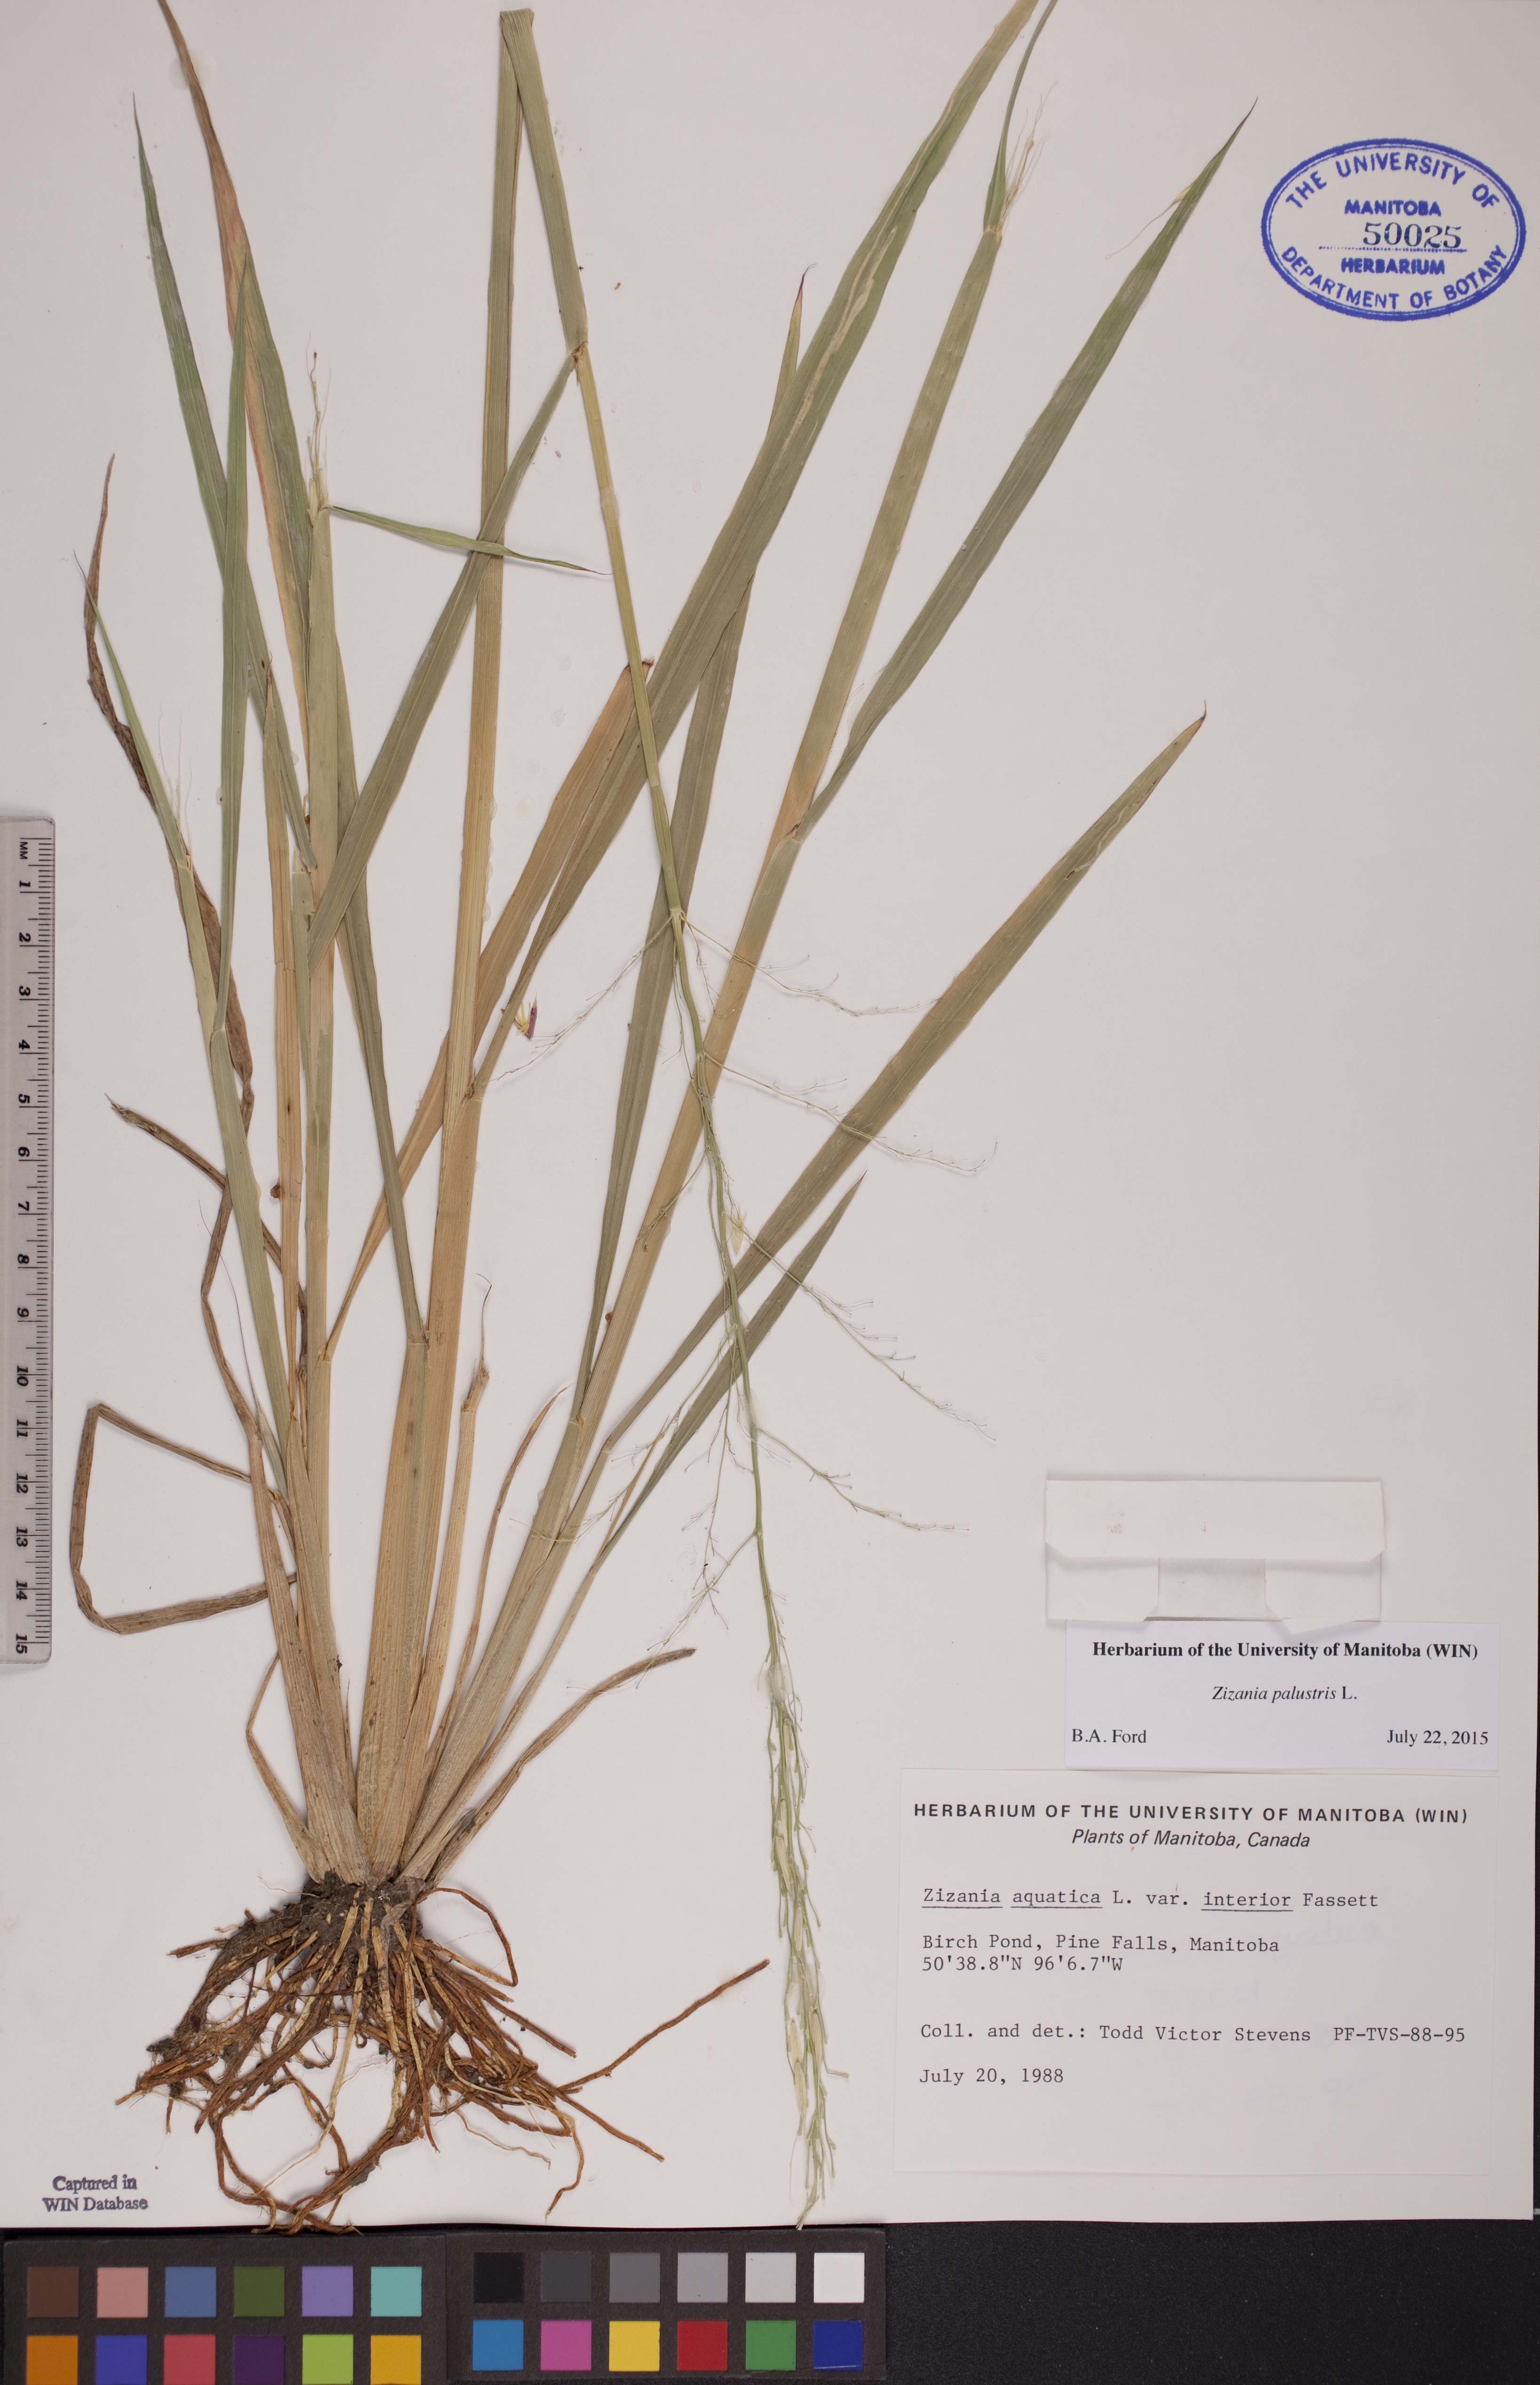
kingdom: Plantae
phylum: Tracheophyta
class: Liliopsida
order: Poales
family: Poaceae
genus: Zizania
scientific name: Zizania palustris
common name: Northern wild rice
